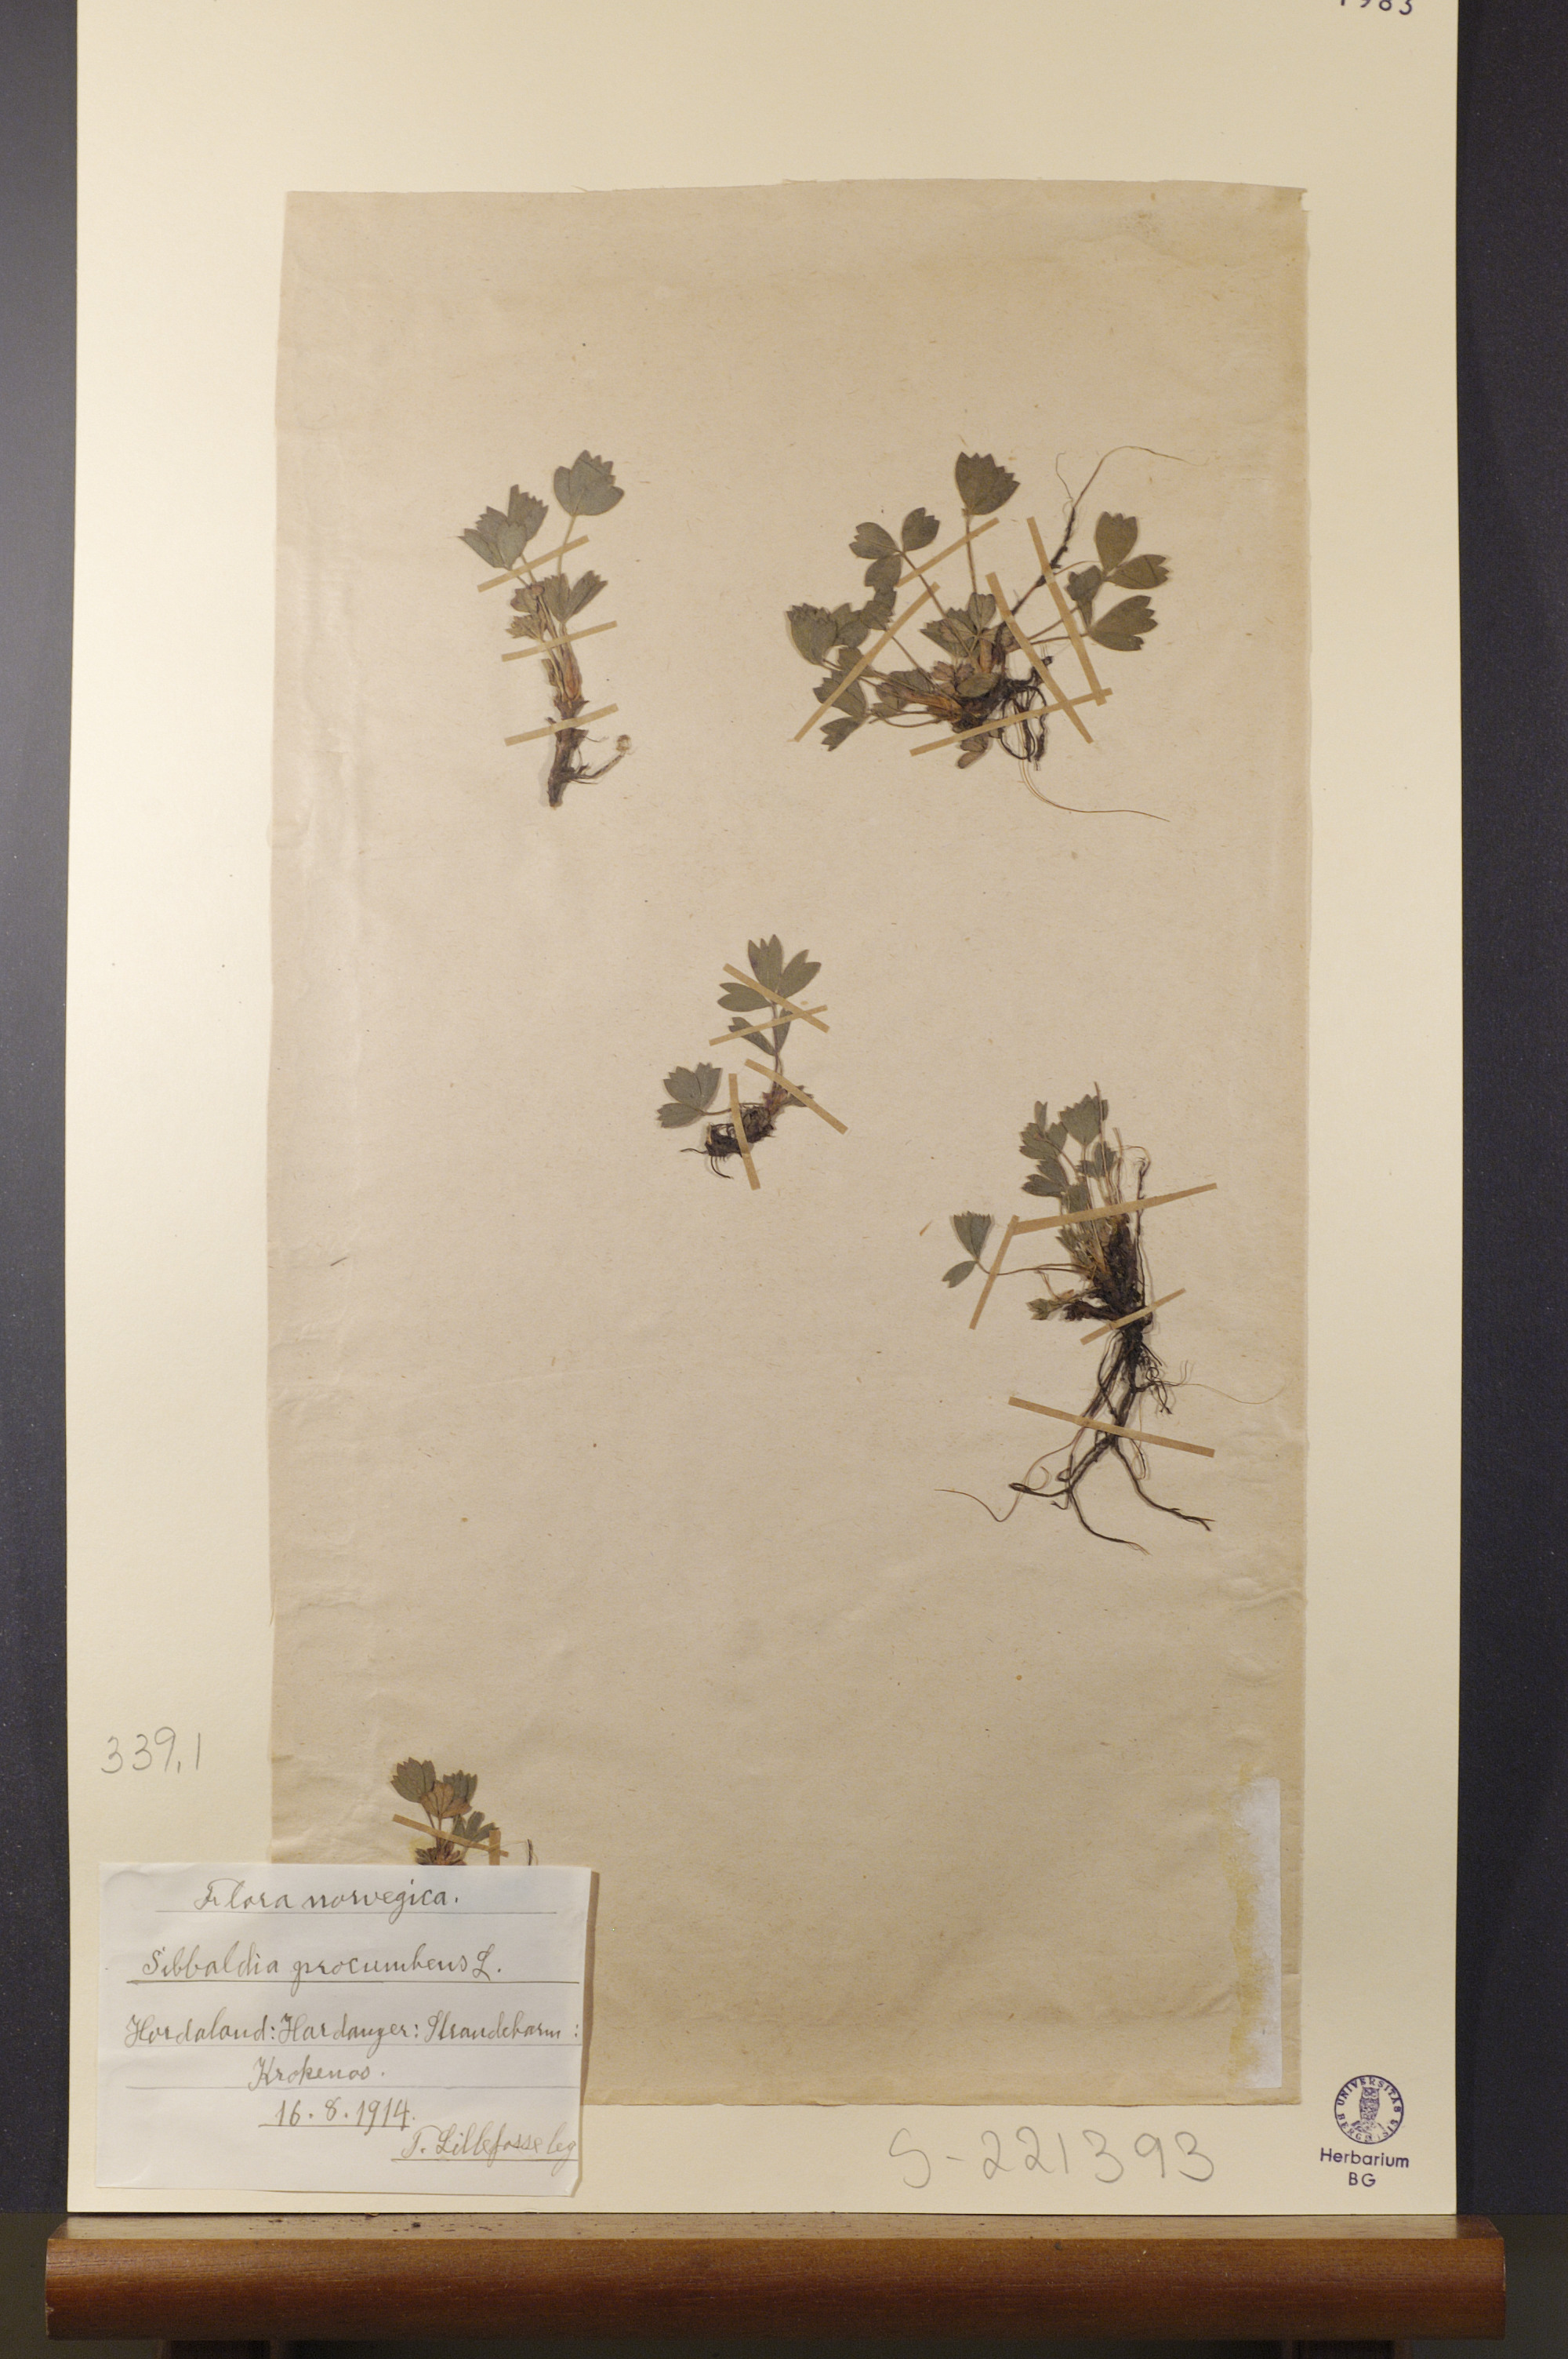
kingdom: Plantae
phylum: Tracheophyta
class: Magnoliopsida
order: Rosales
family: Rosaceae
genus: Sibbaldia
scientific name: Sibbaldia procumbens
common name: Creeping sibbaldia
